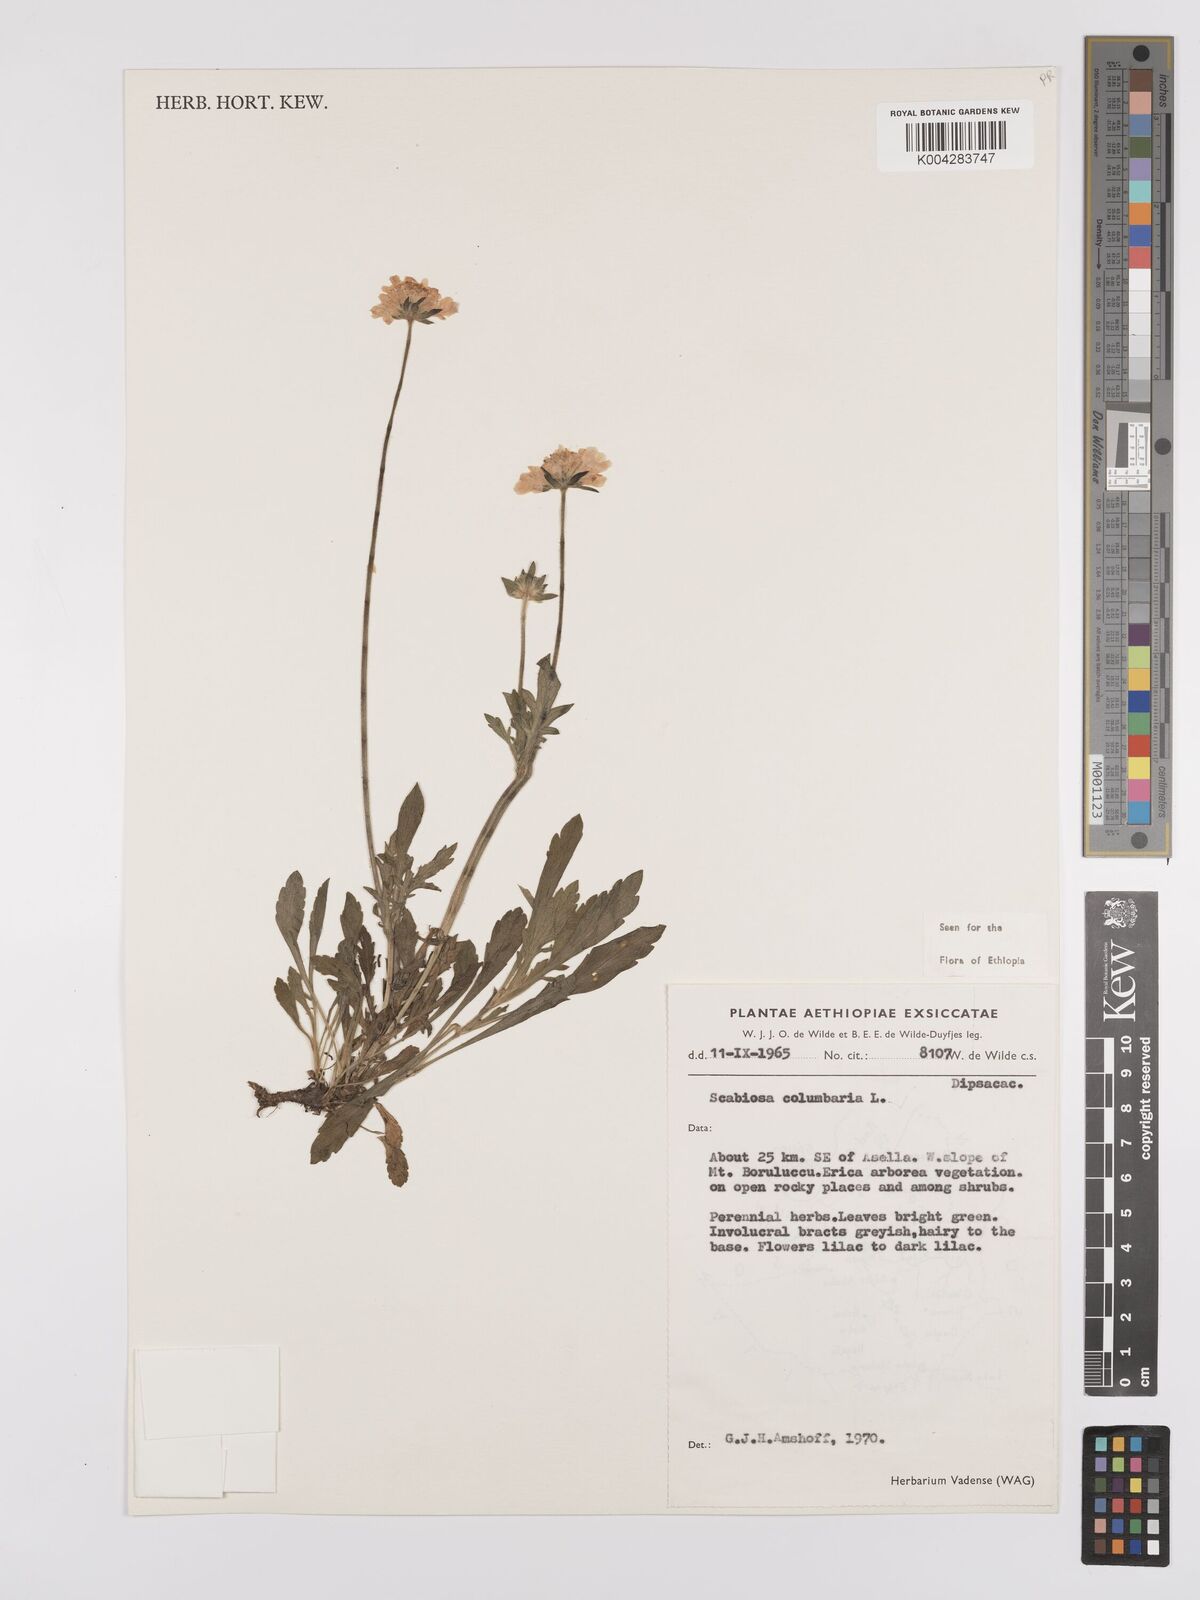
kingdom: Plantae
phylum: Tracheophyta
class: Magnoliopsida
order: Dipsacales
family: Caprifoliaceae
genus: Scabiosa
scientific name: Scabiosa columbaria
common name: Small scabious
